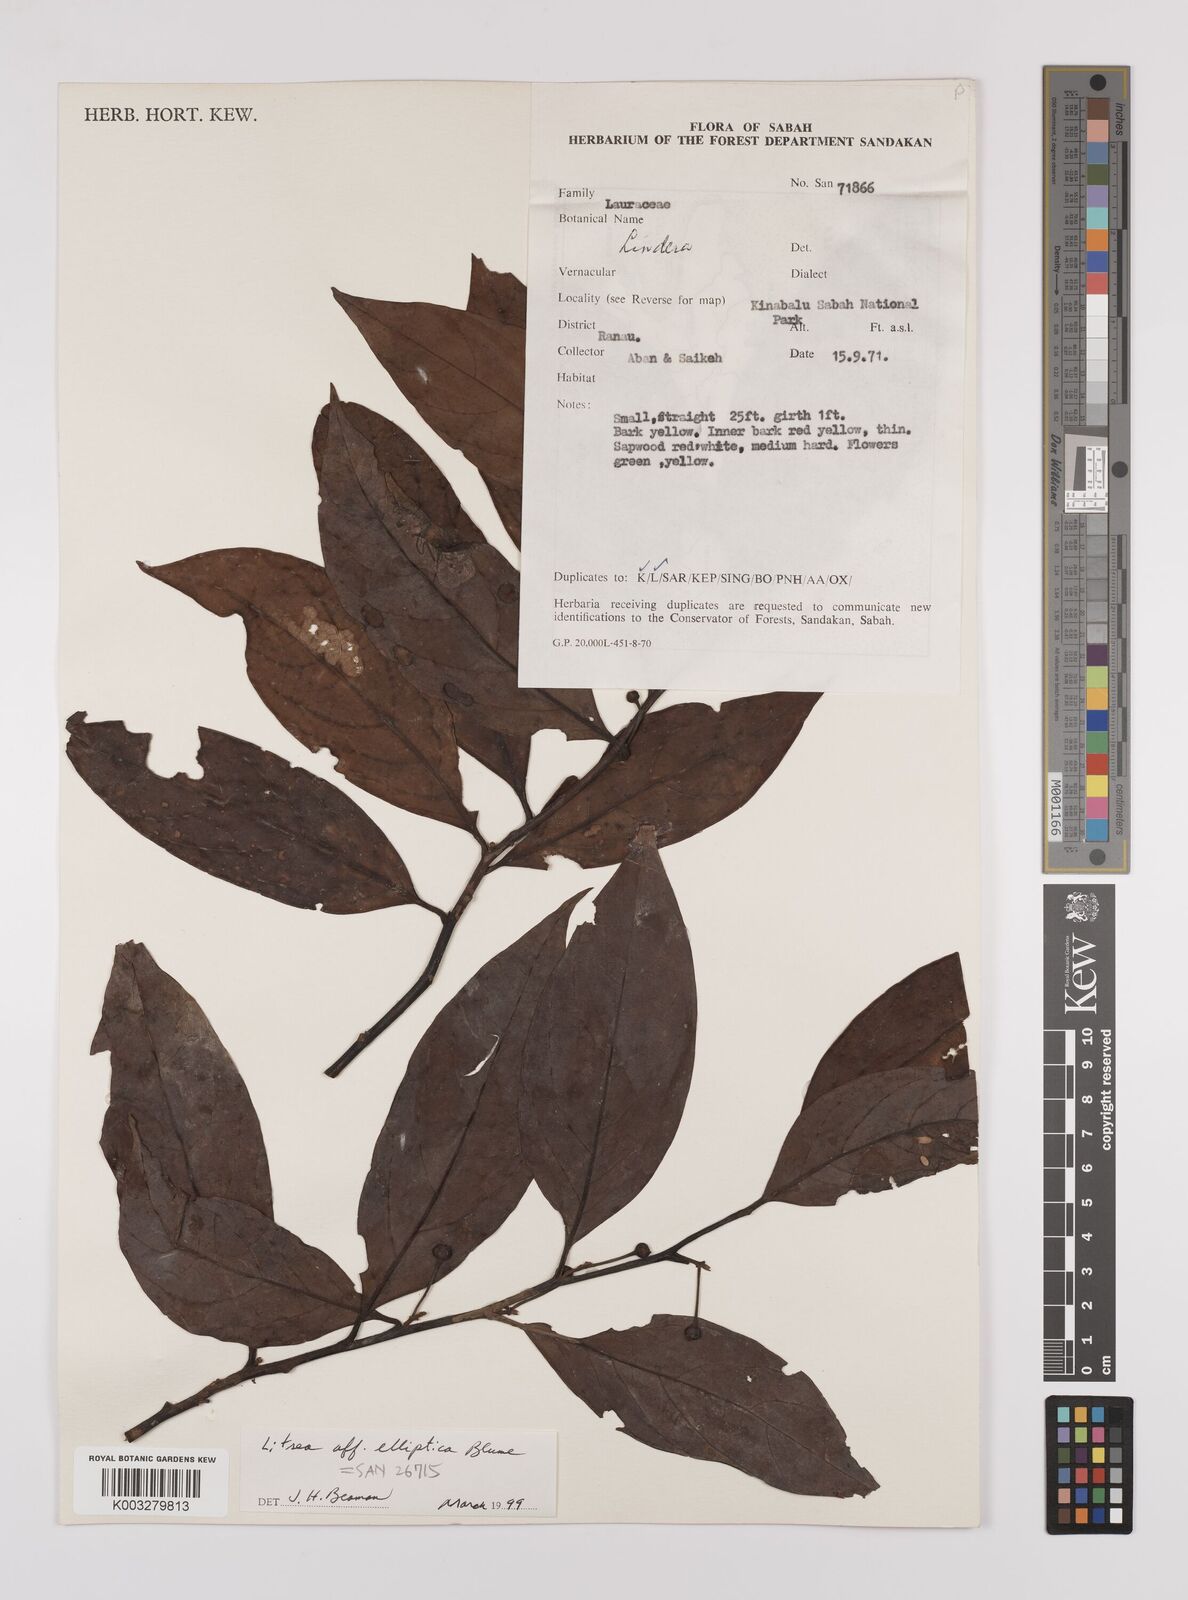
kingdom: Plantae
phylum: Tracheophyta
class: Magnoliopsida
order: Laurales
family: Lauraceae
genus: Litsea
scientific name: Litsea elliptica
